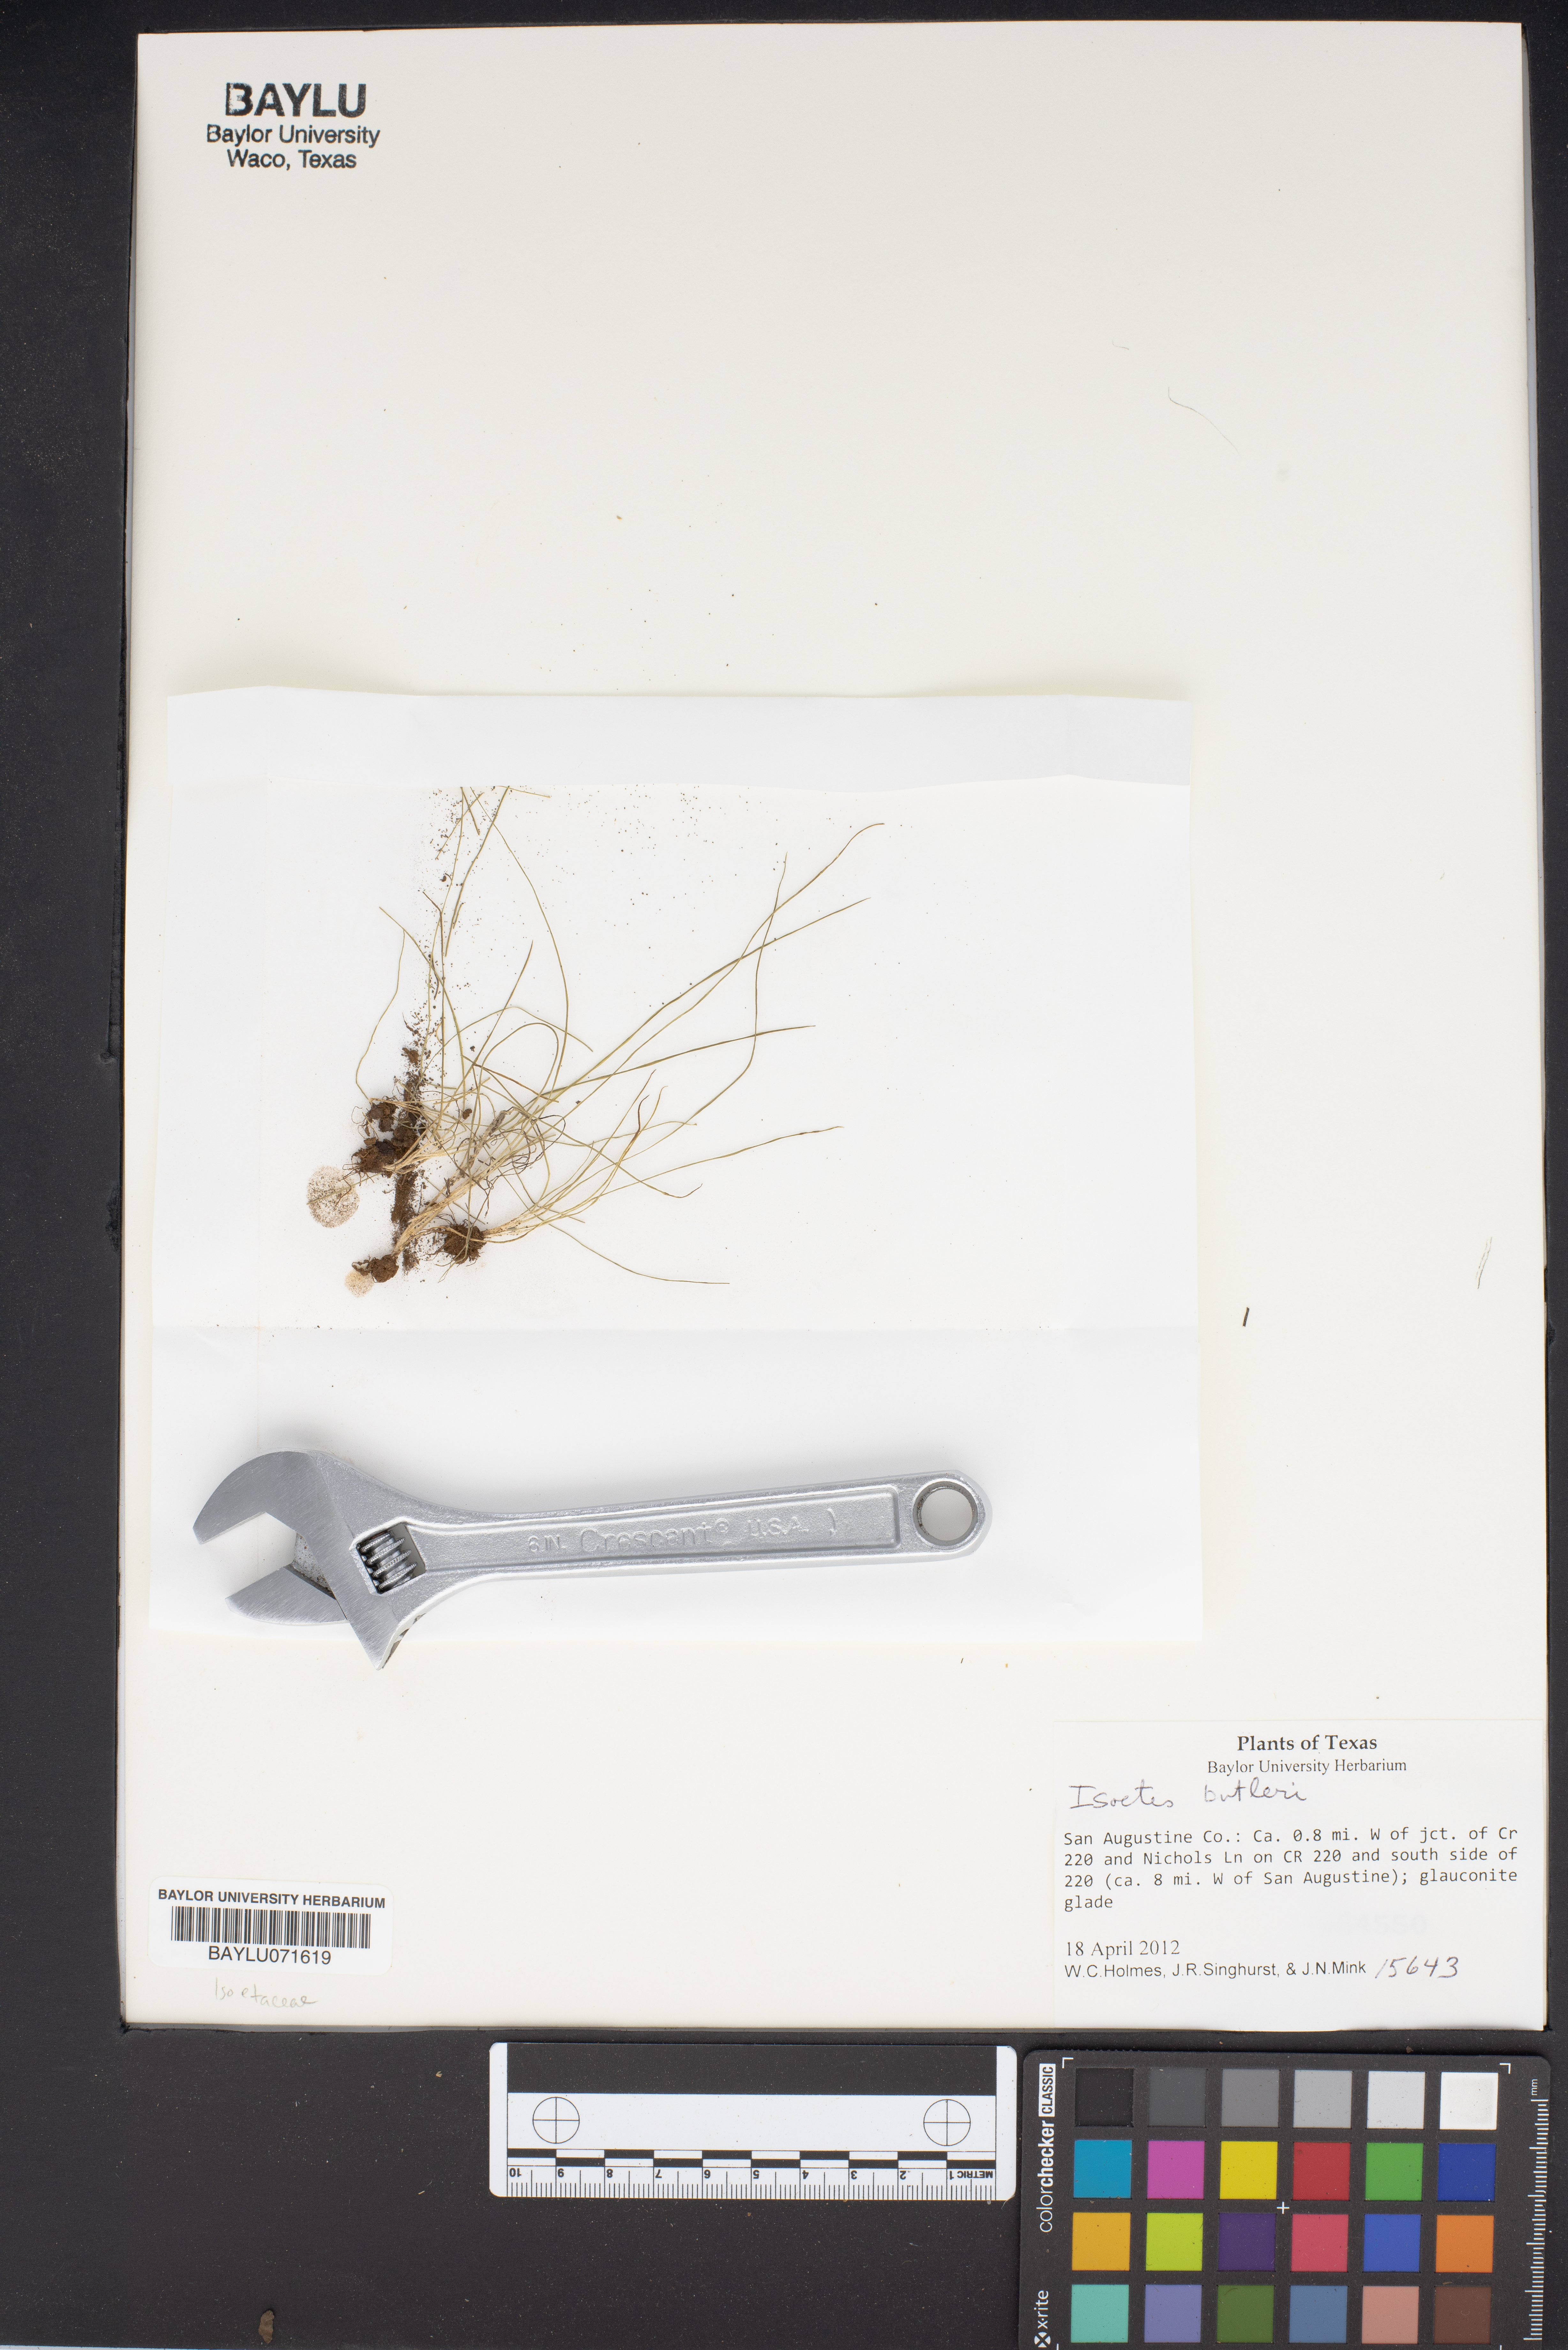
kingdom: Plantae
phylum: Tracheophyta
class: Lycopodiopsida
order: Isoetales
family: Isoetaceae
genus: Isoetes
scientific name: Isoetes
